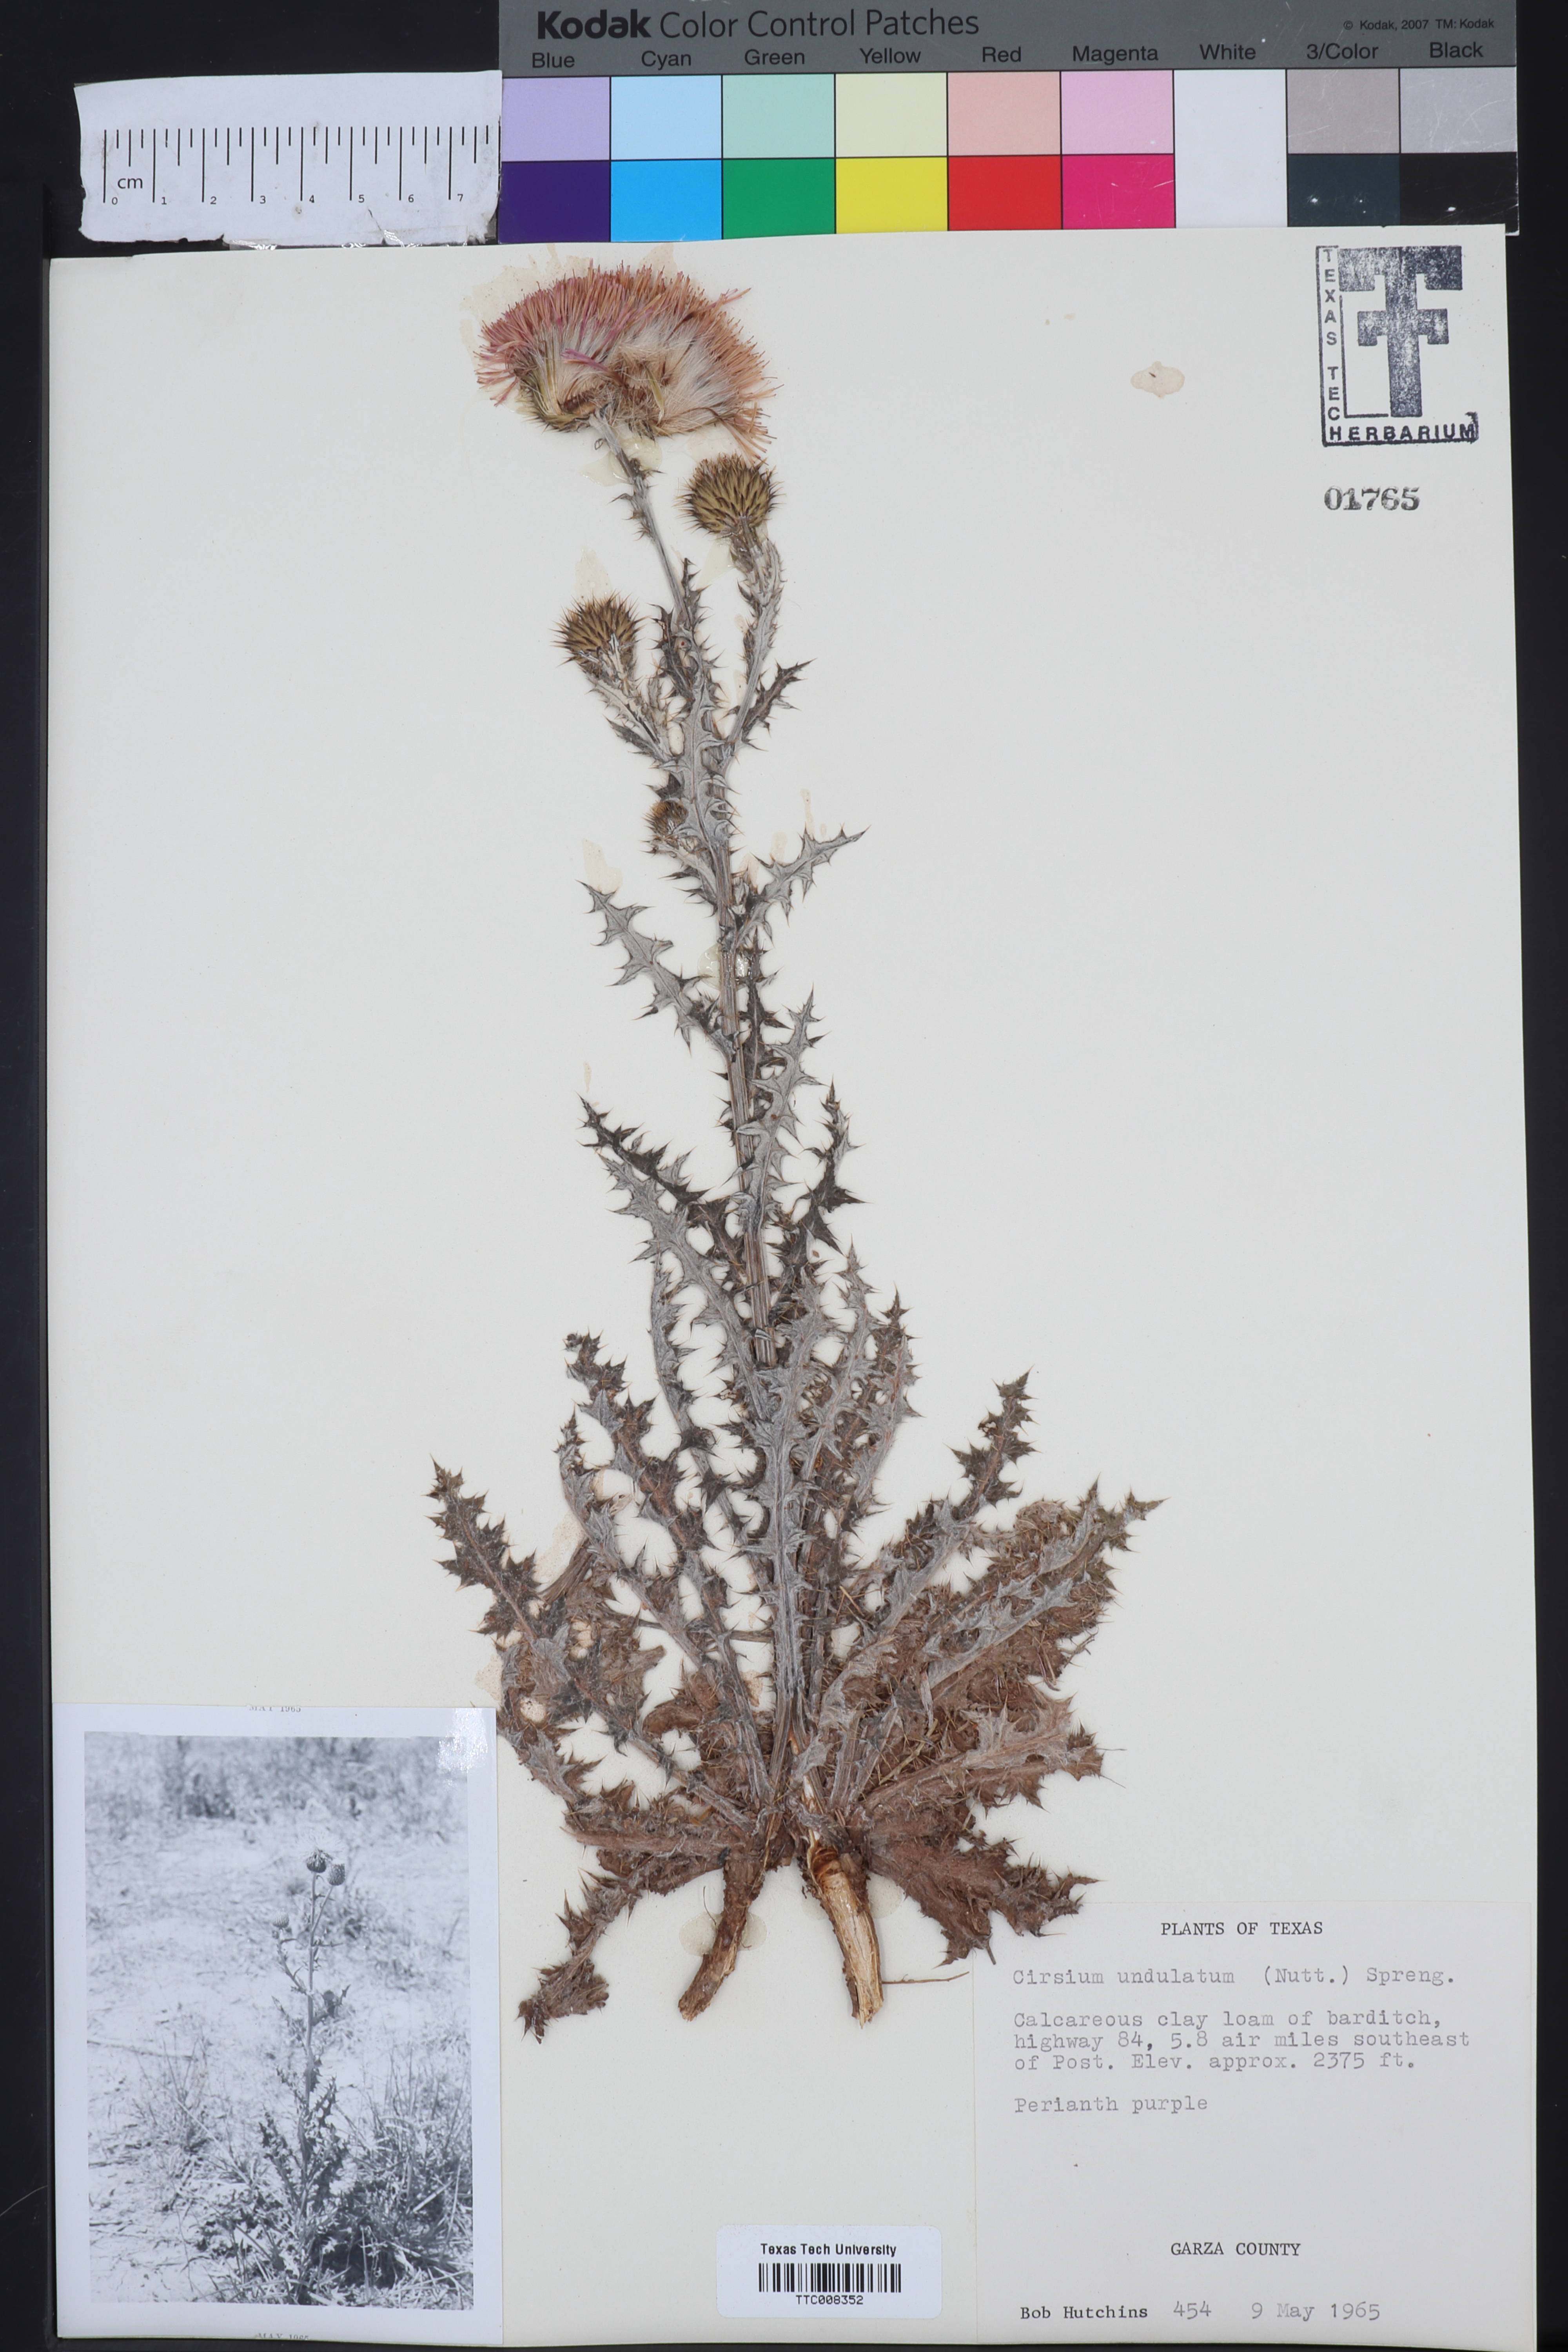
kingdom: Plantae
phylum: Tracheophyta
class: Magnoliopsida
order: Asterales
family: Asteraceae
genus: Cirsium
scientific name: Cirsium undulatum
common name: Pasture thistle
